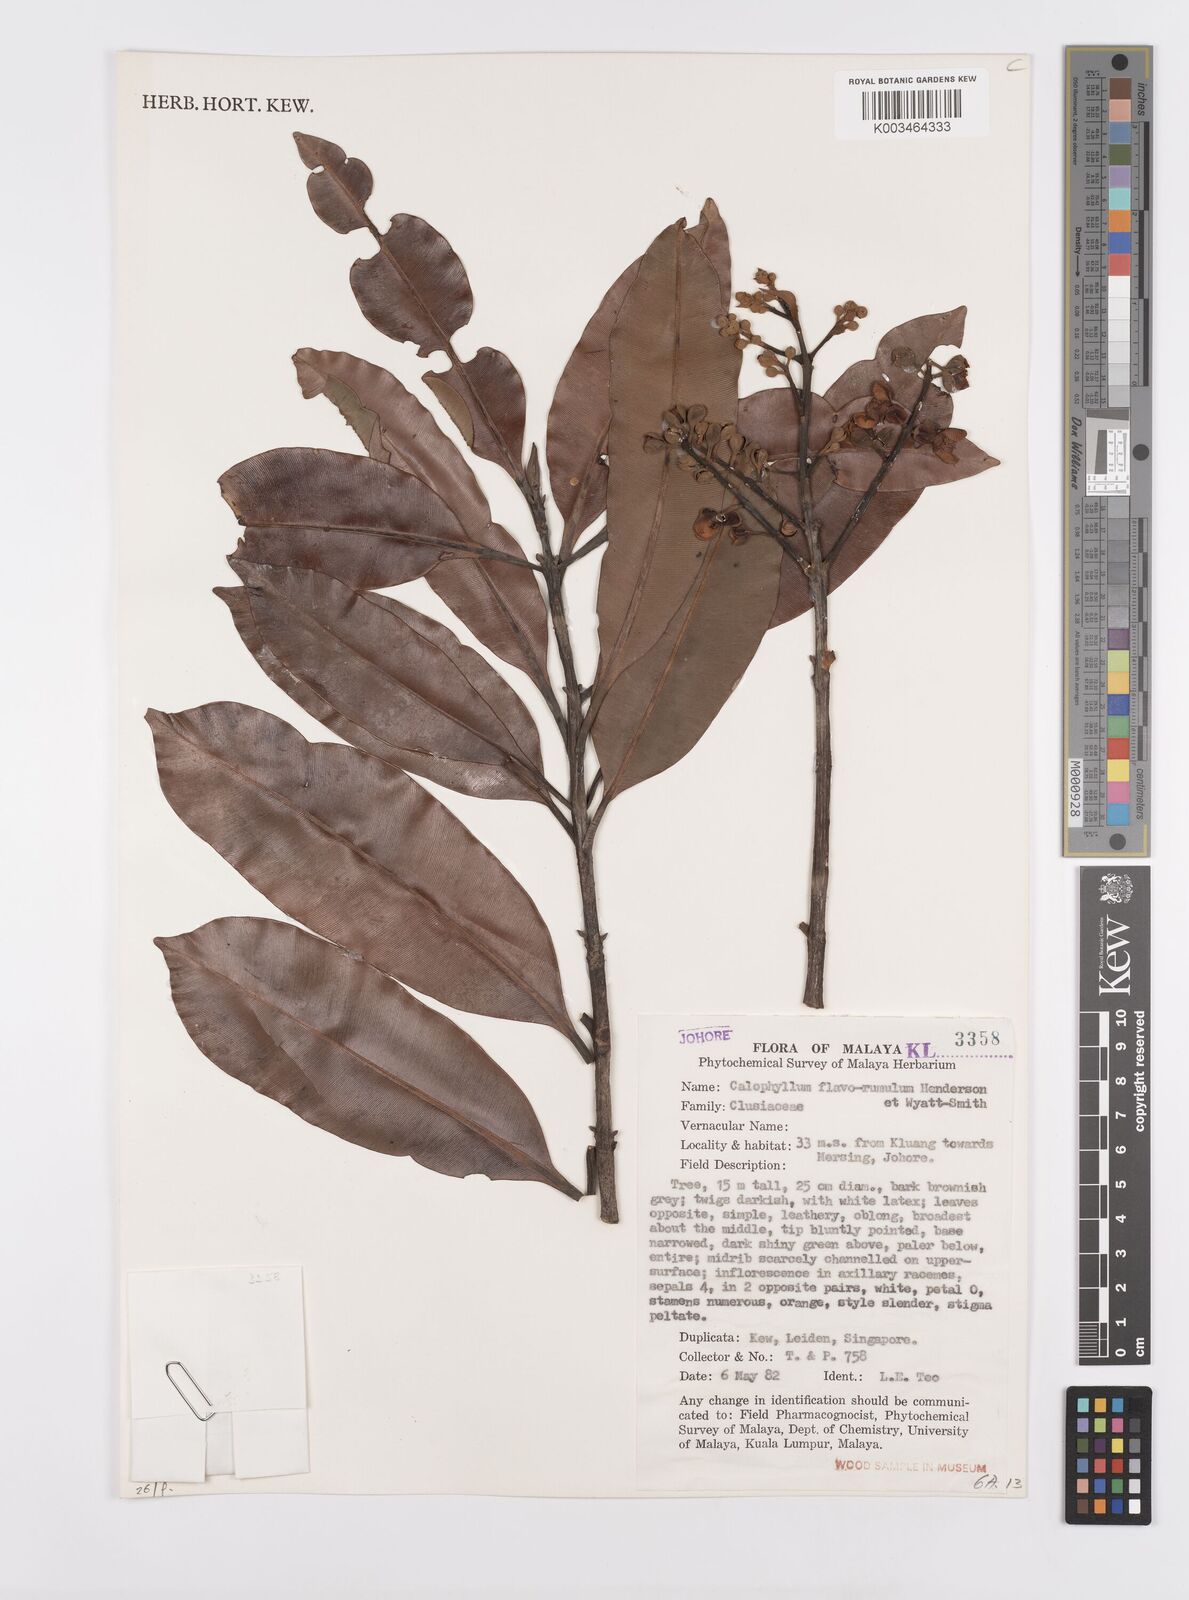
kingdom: Plantae
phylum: Tracheophyta
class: Magnoliopsida
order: Malpighiales
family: Calophyllaceae
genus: Calophyllum
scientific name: Calophyllum flavoramulum
